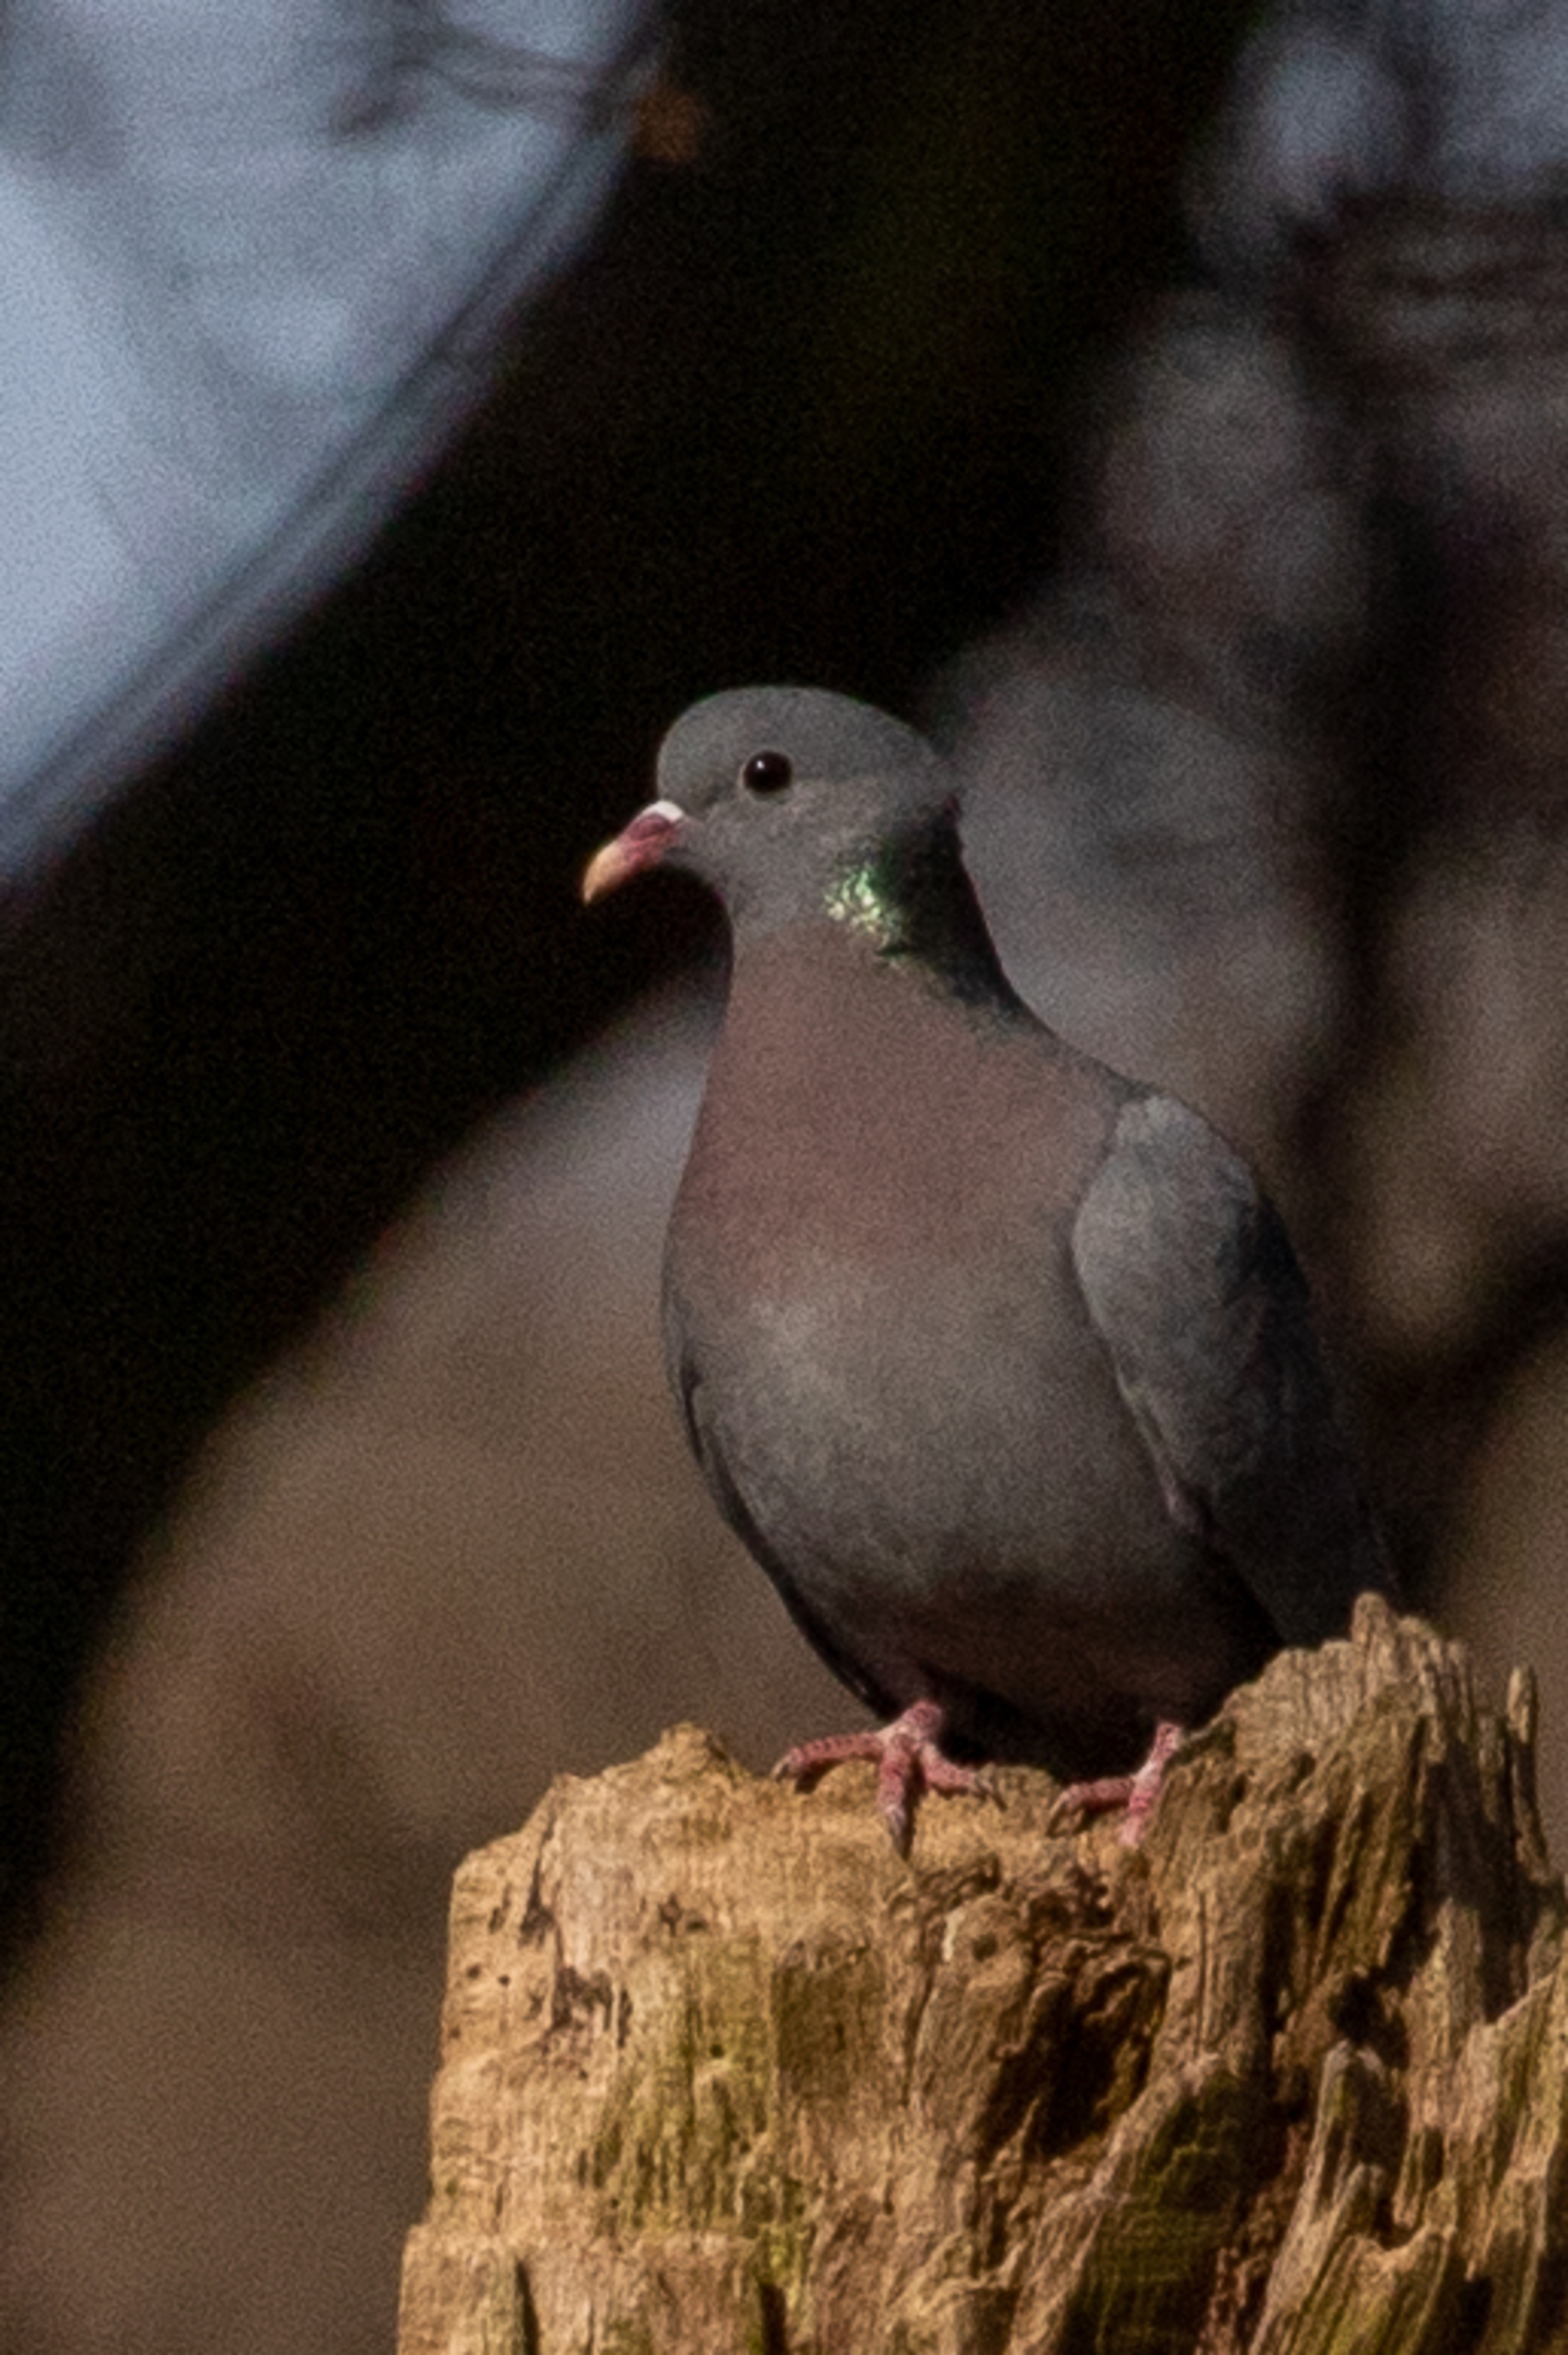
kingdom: Animalia
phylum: Chordata
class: Aves
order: Columbiformes
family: Columbidae
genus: Columba
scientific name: Columba oenas
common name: Huldue
